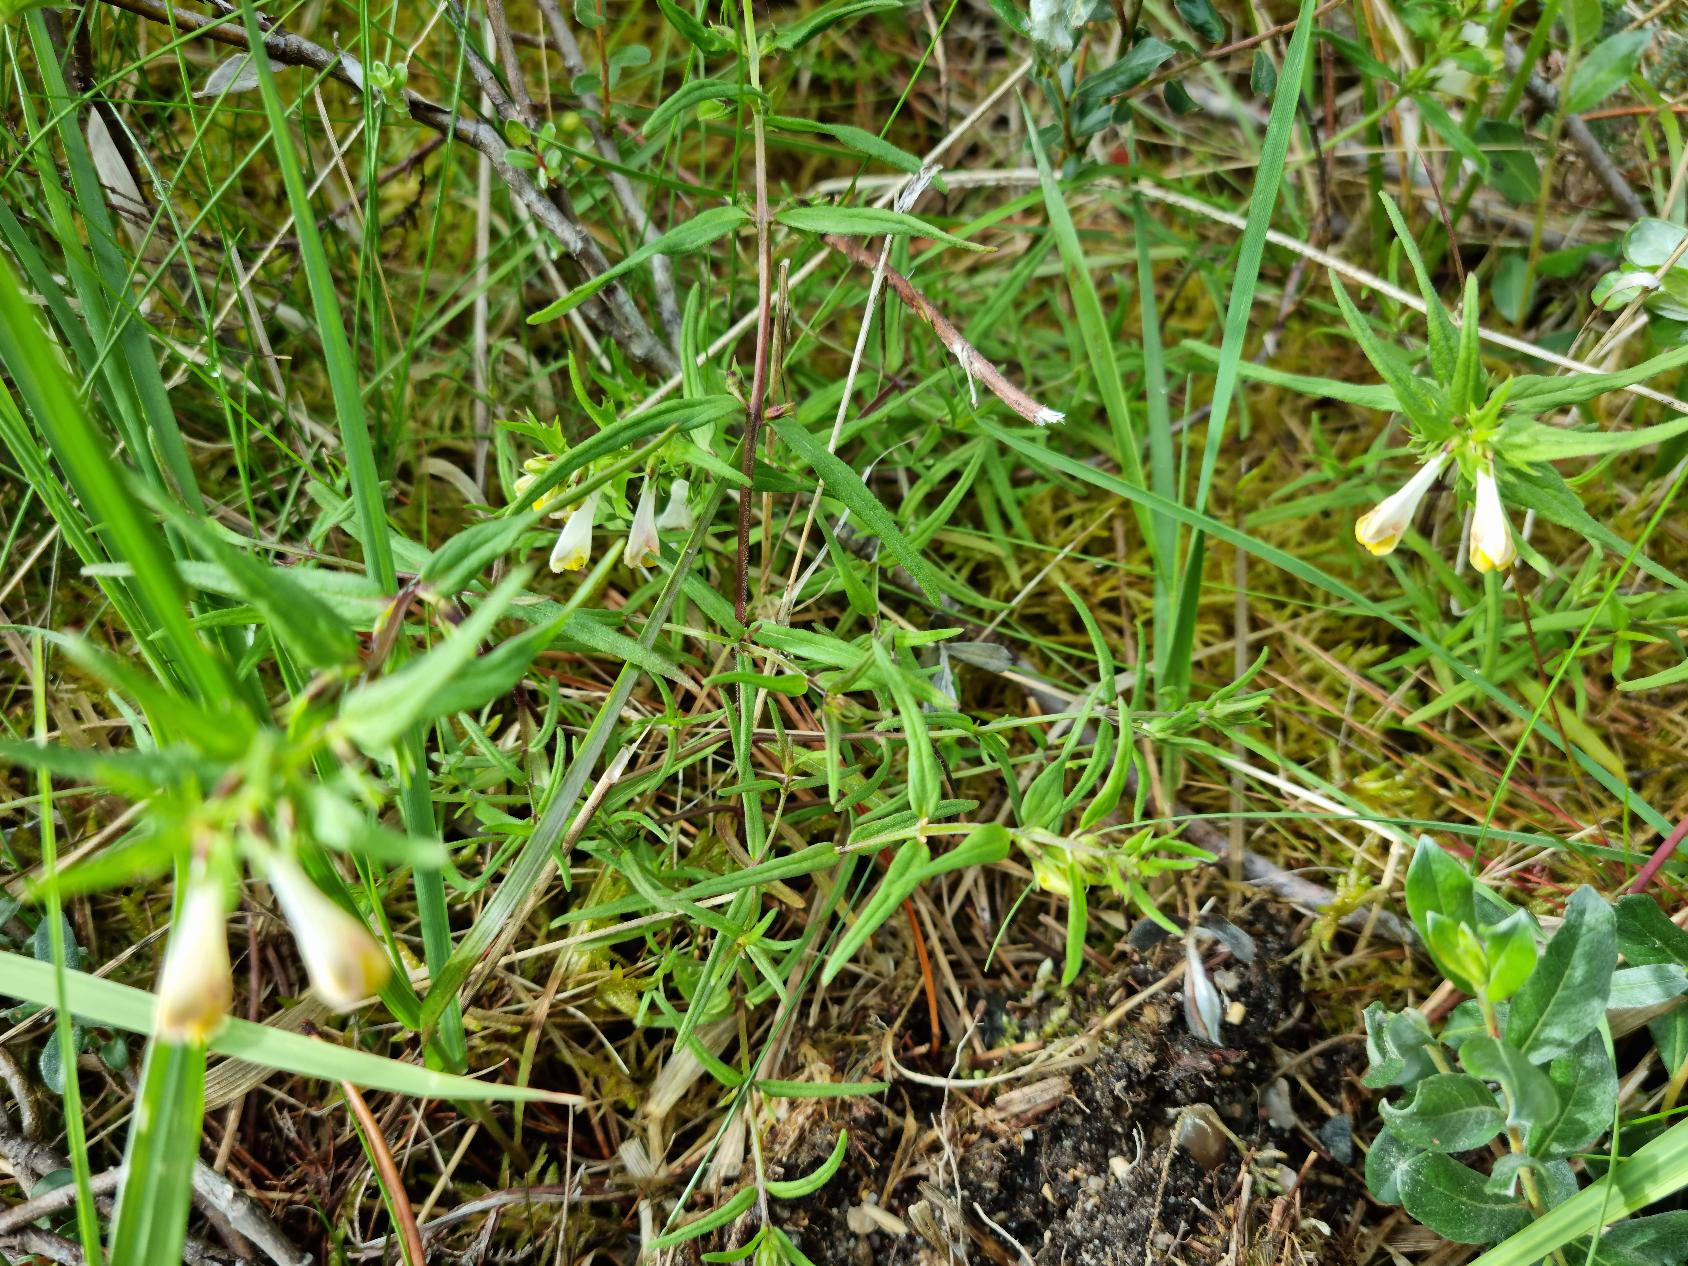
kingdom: Plantae
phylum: Tracheophyta
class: Magnoliopsida
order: Lamiales
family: Orobanchaceae
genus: Melampyrum
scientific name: Melampyrum pratense
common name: Almindelig kohvede
